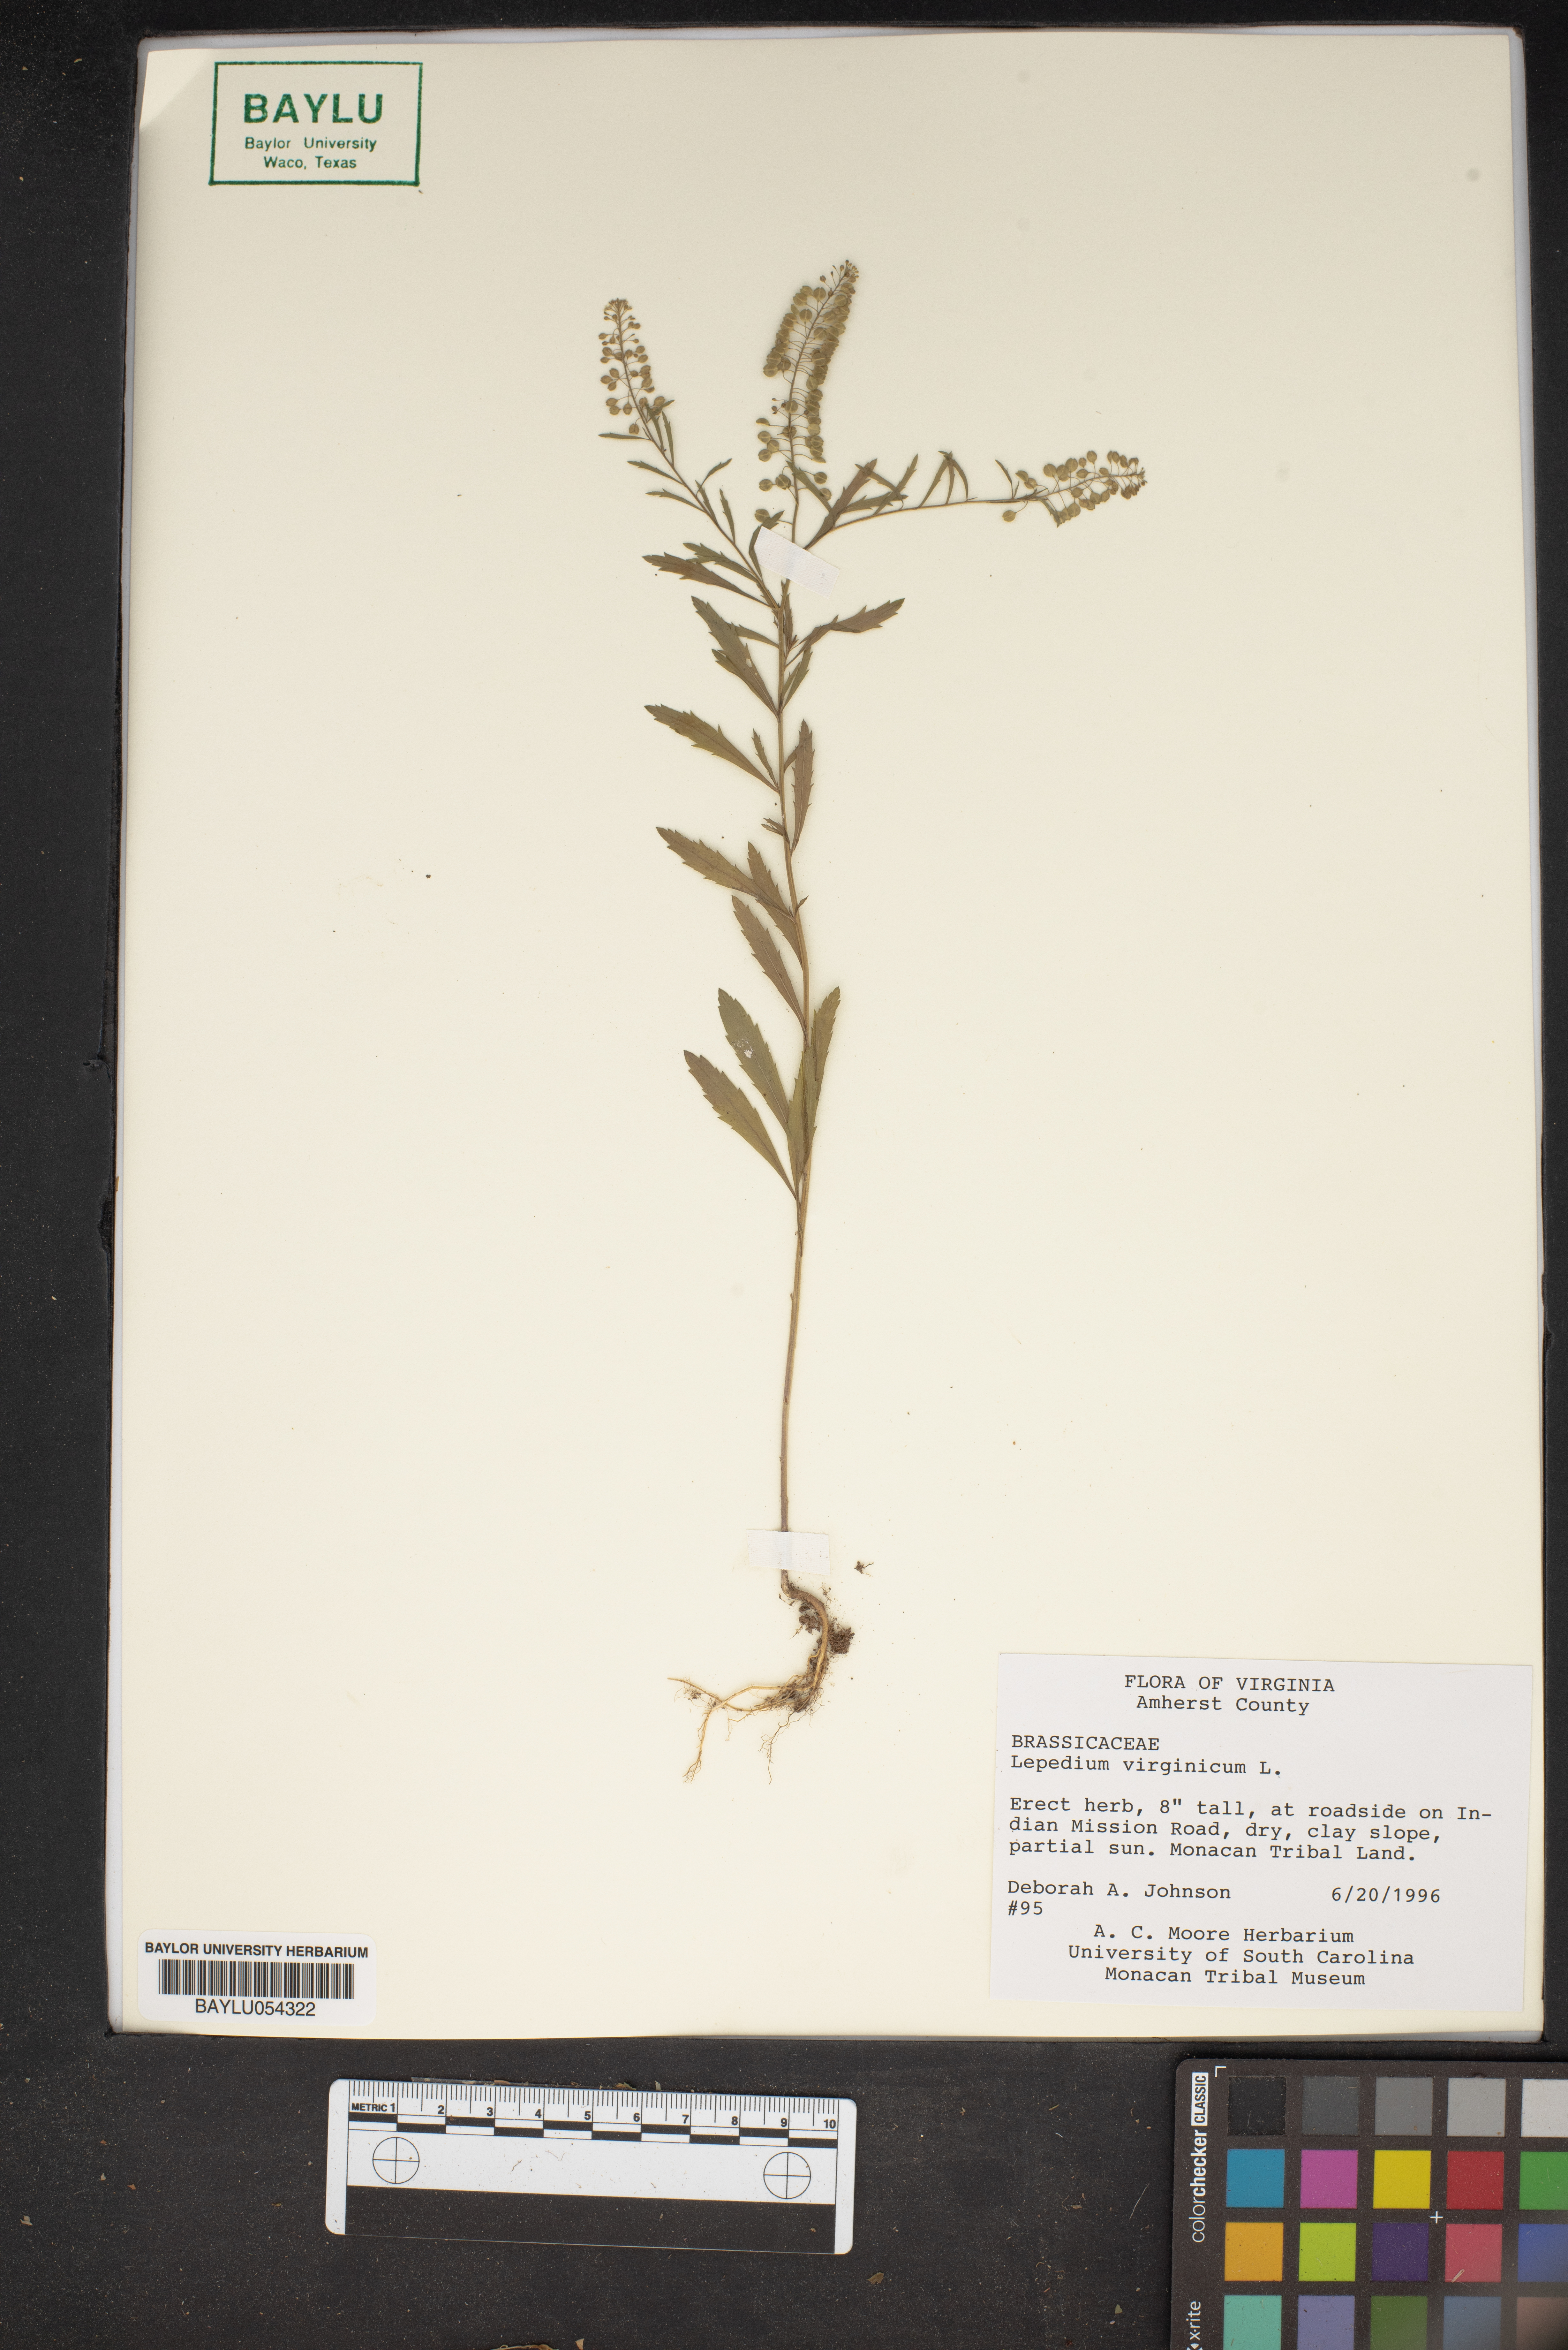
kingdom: Plantae
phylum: Tracheophyta
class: Magnoliopsida
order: Brassicales
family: Brassicaceae
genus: Lepidium
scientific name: Lepidium virginicum
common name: Least pepperwort
